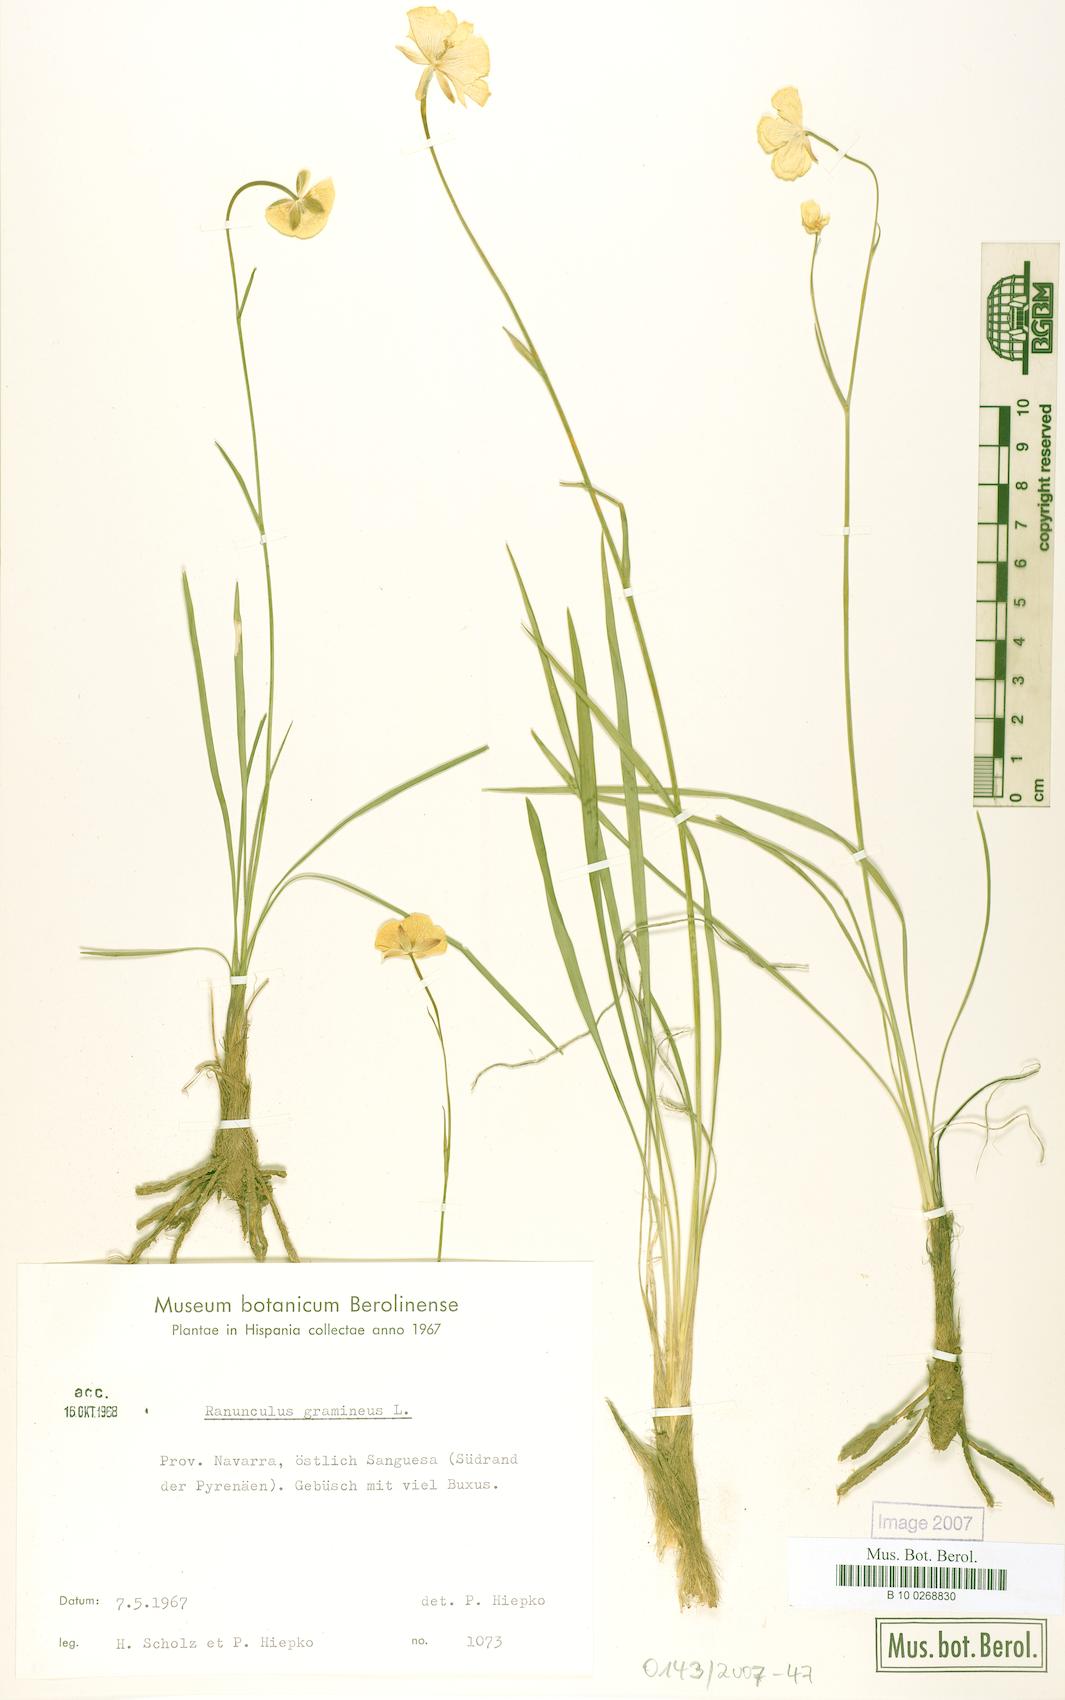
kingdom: Plantae
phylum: Tracheophyta
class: Magnoliopsida
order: Ranunculales
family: Ranunculaceae
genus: Ranunculus
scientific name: Ranunculus gramineus
